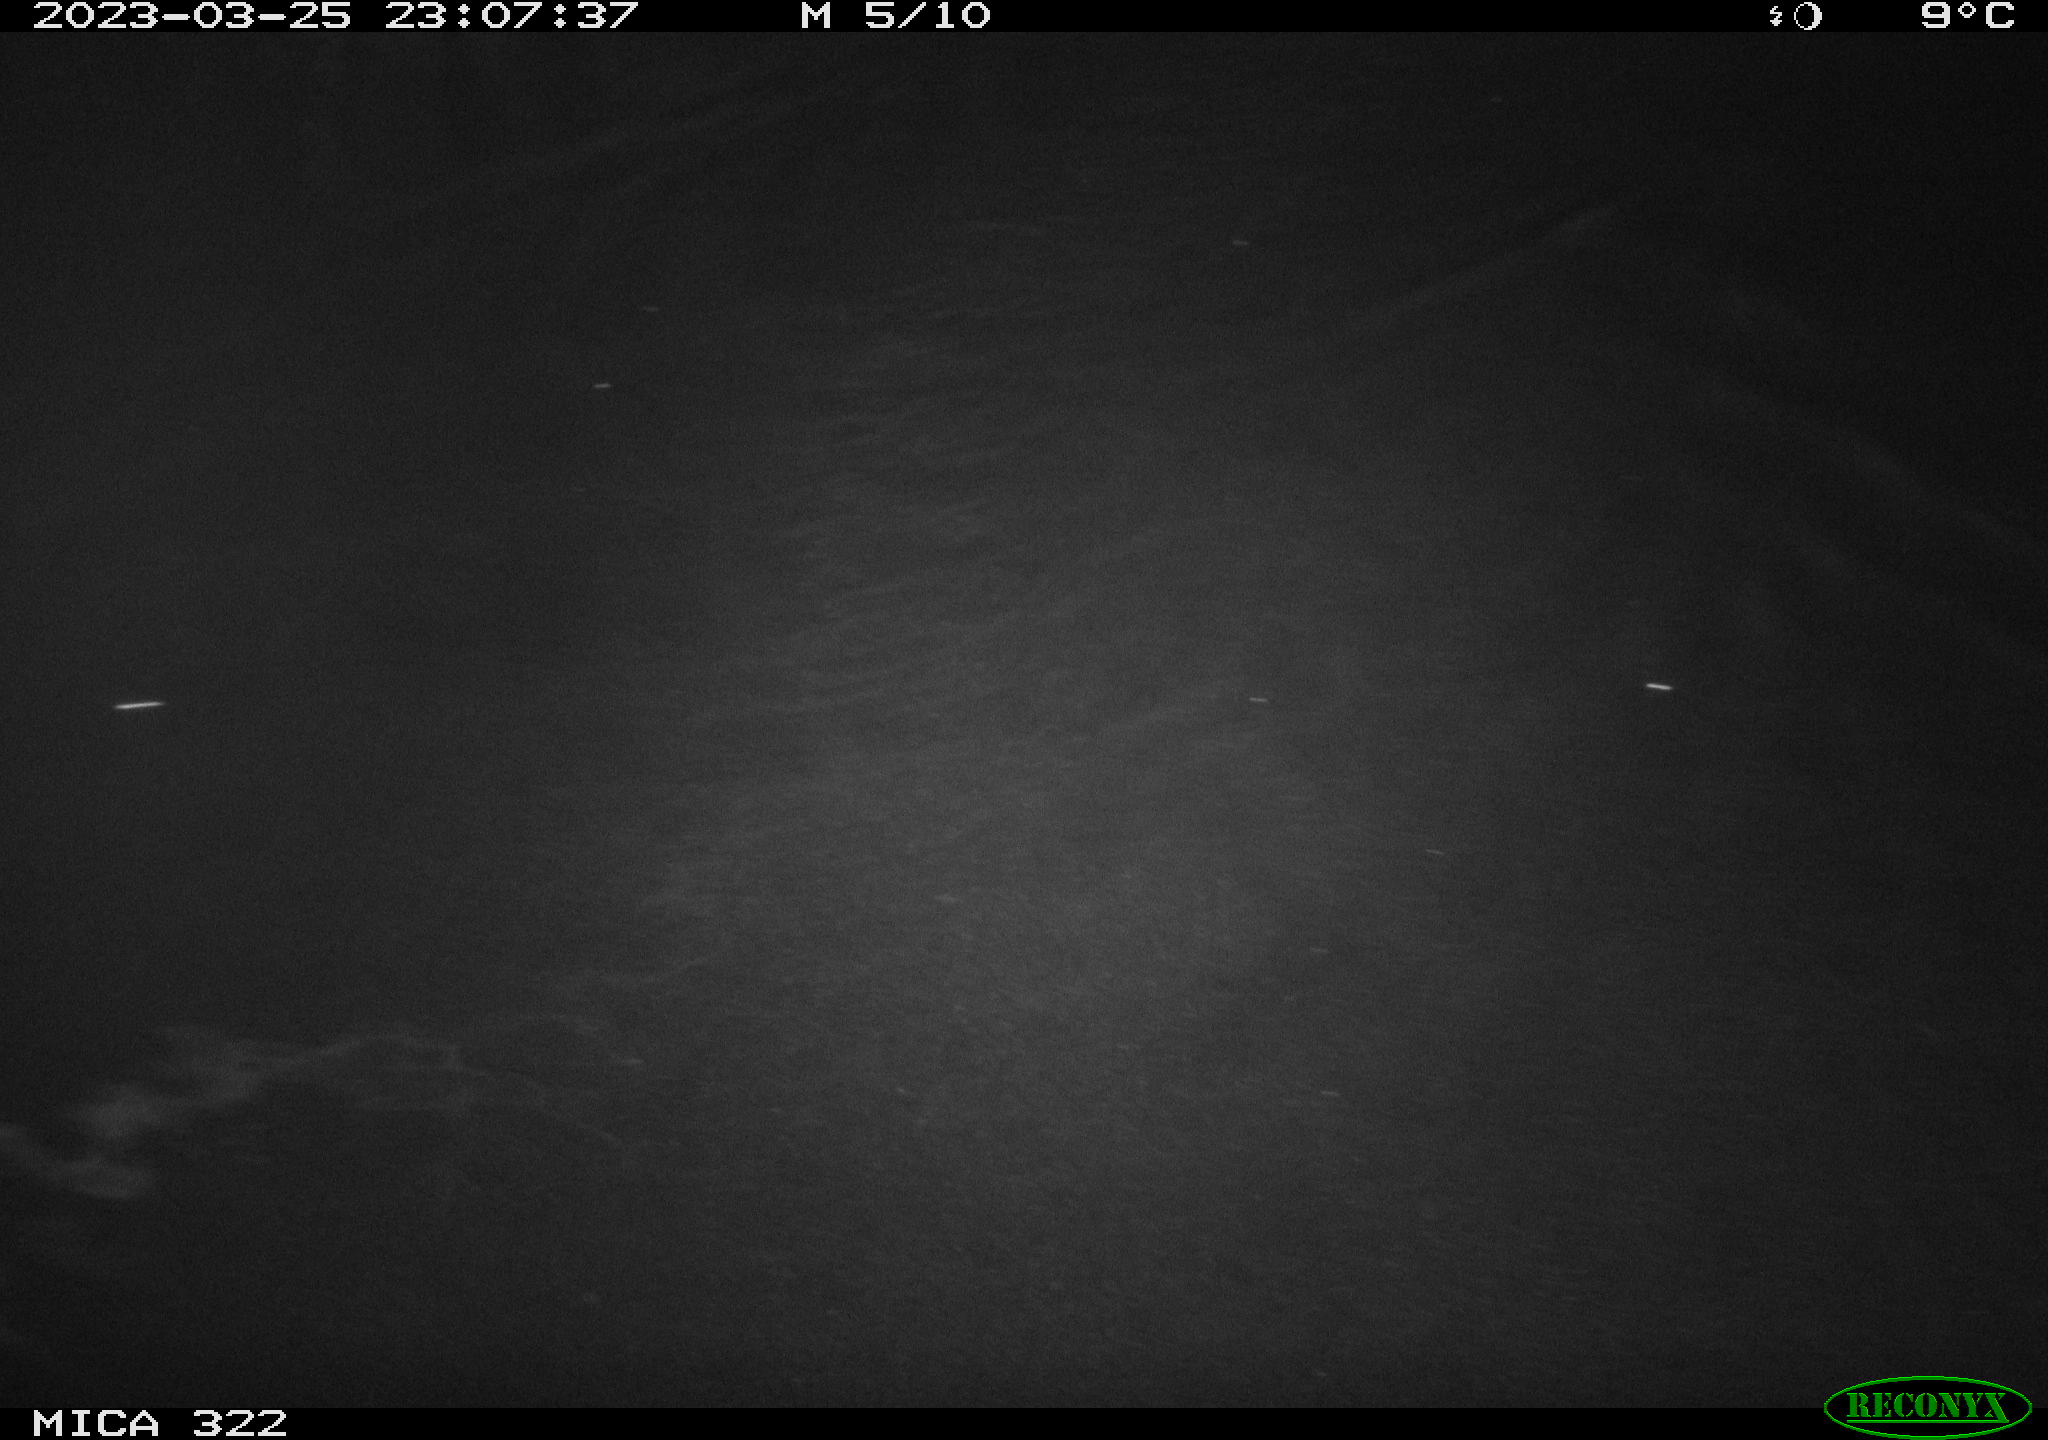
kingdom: Animalia
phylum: Chordata
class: Mammalia
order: Rodentia
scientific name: Rodentia
